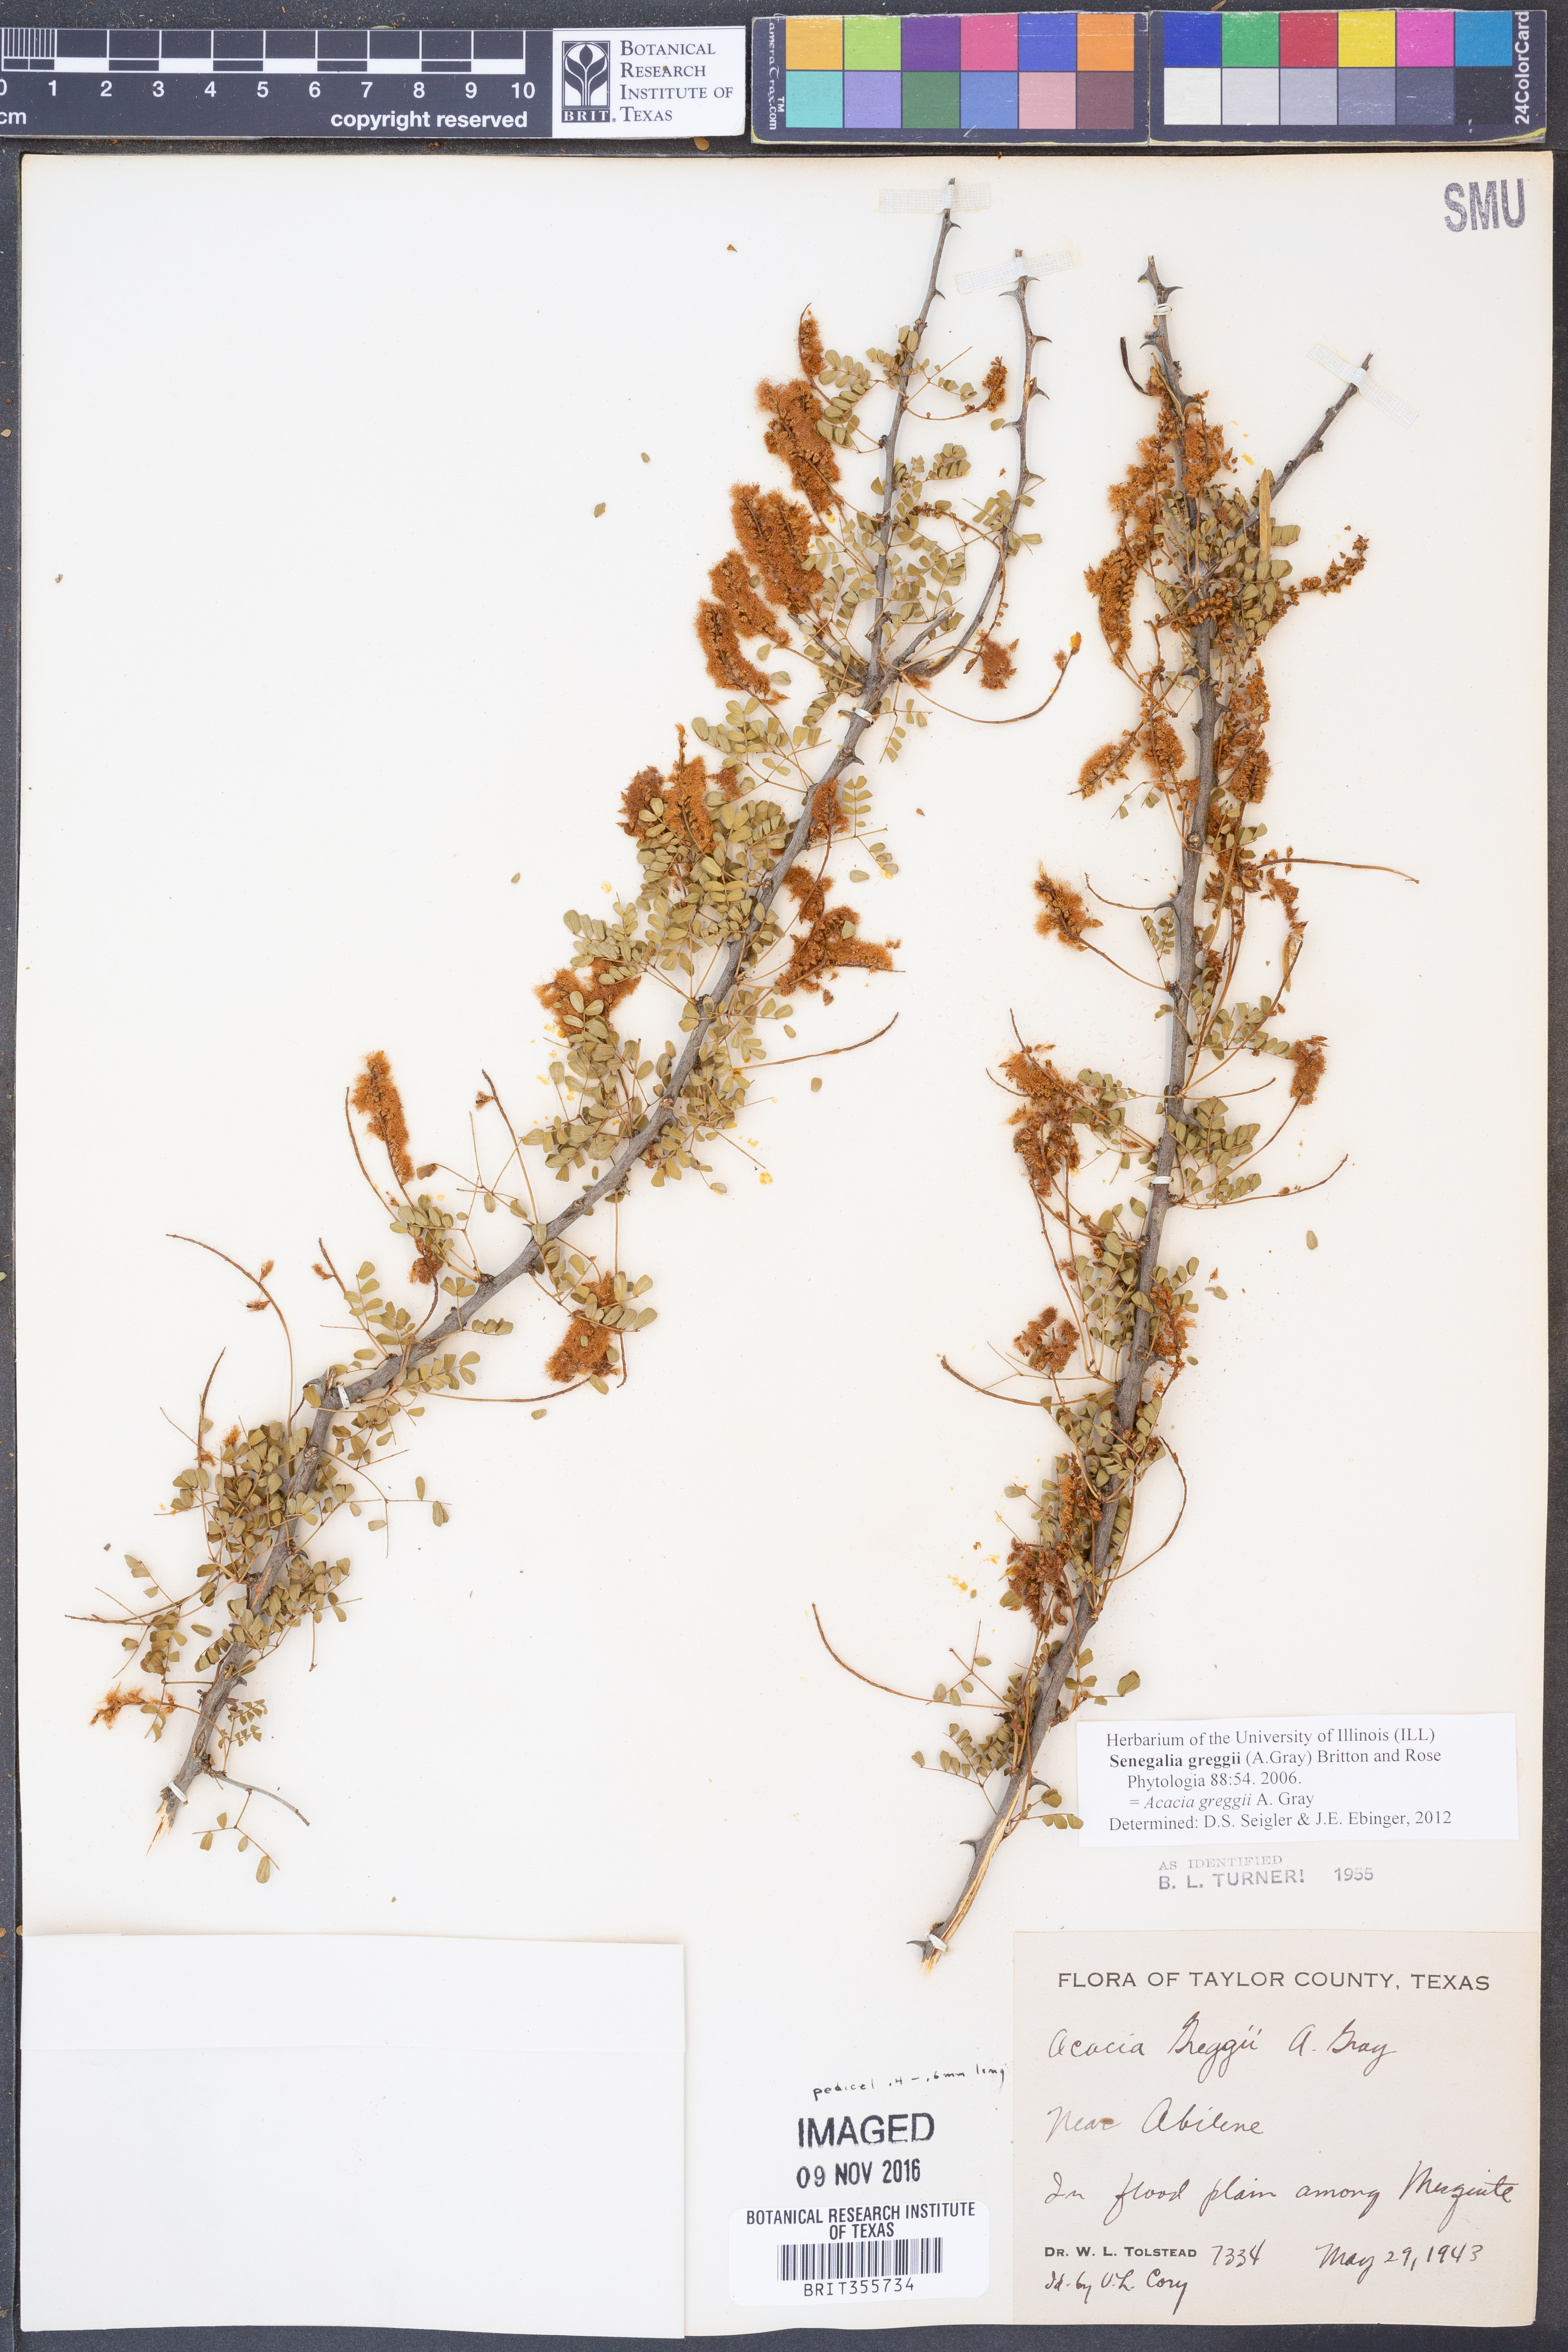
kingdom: Plantae
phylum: Tracheophyta
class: Magnoliopsida
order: Fabales
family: Fabaceae
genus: Senegalia
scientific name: Senegalia greggii
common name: Texas-mimosa
